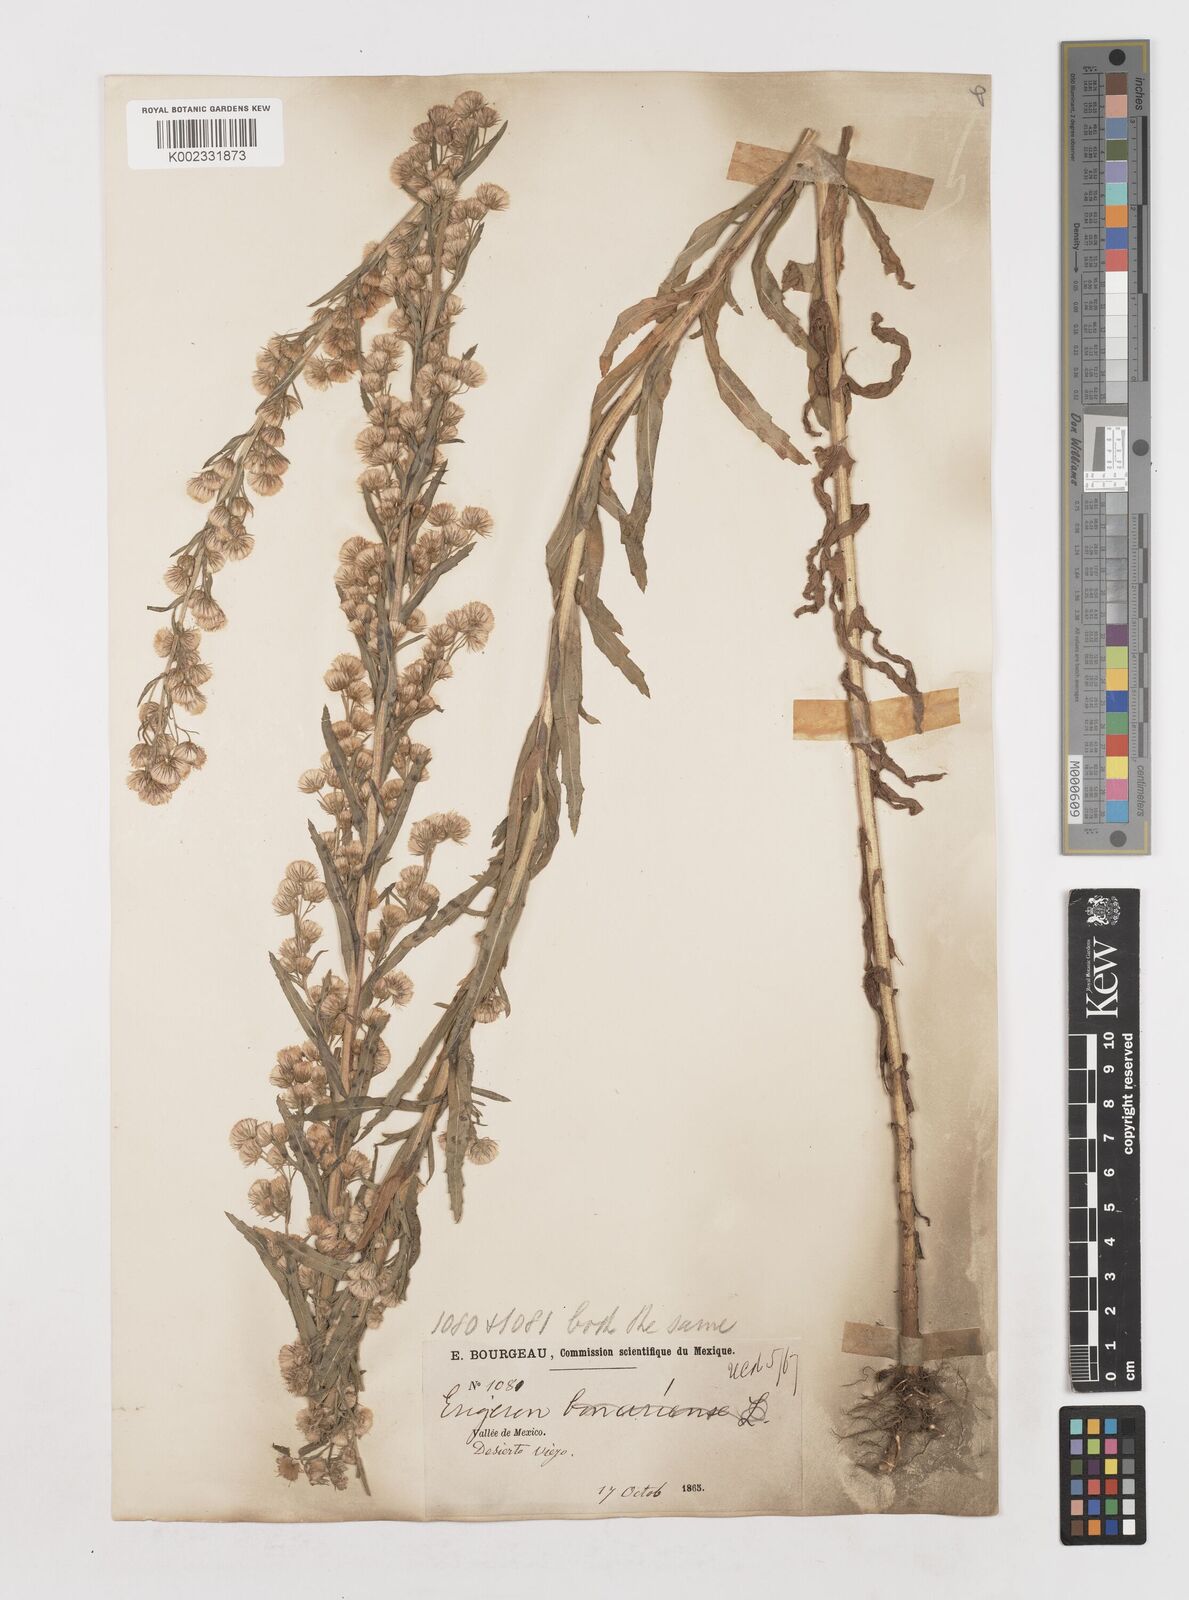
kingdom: Plantae
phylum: Tracheophyta
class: Magnoliopsida
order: Asterales
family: Asteraceae
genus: Erigeron
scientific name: Erigeron
